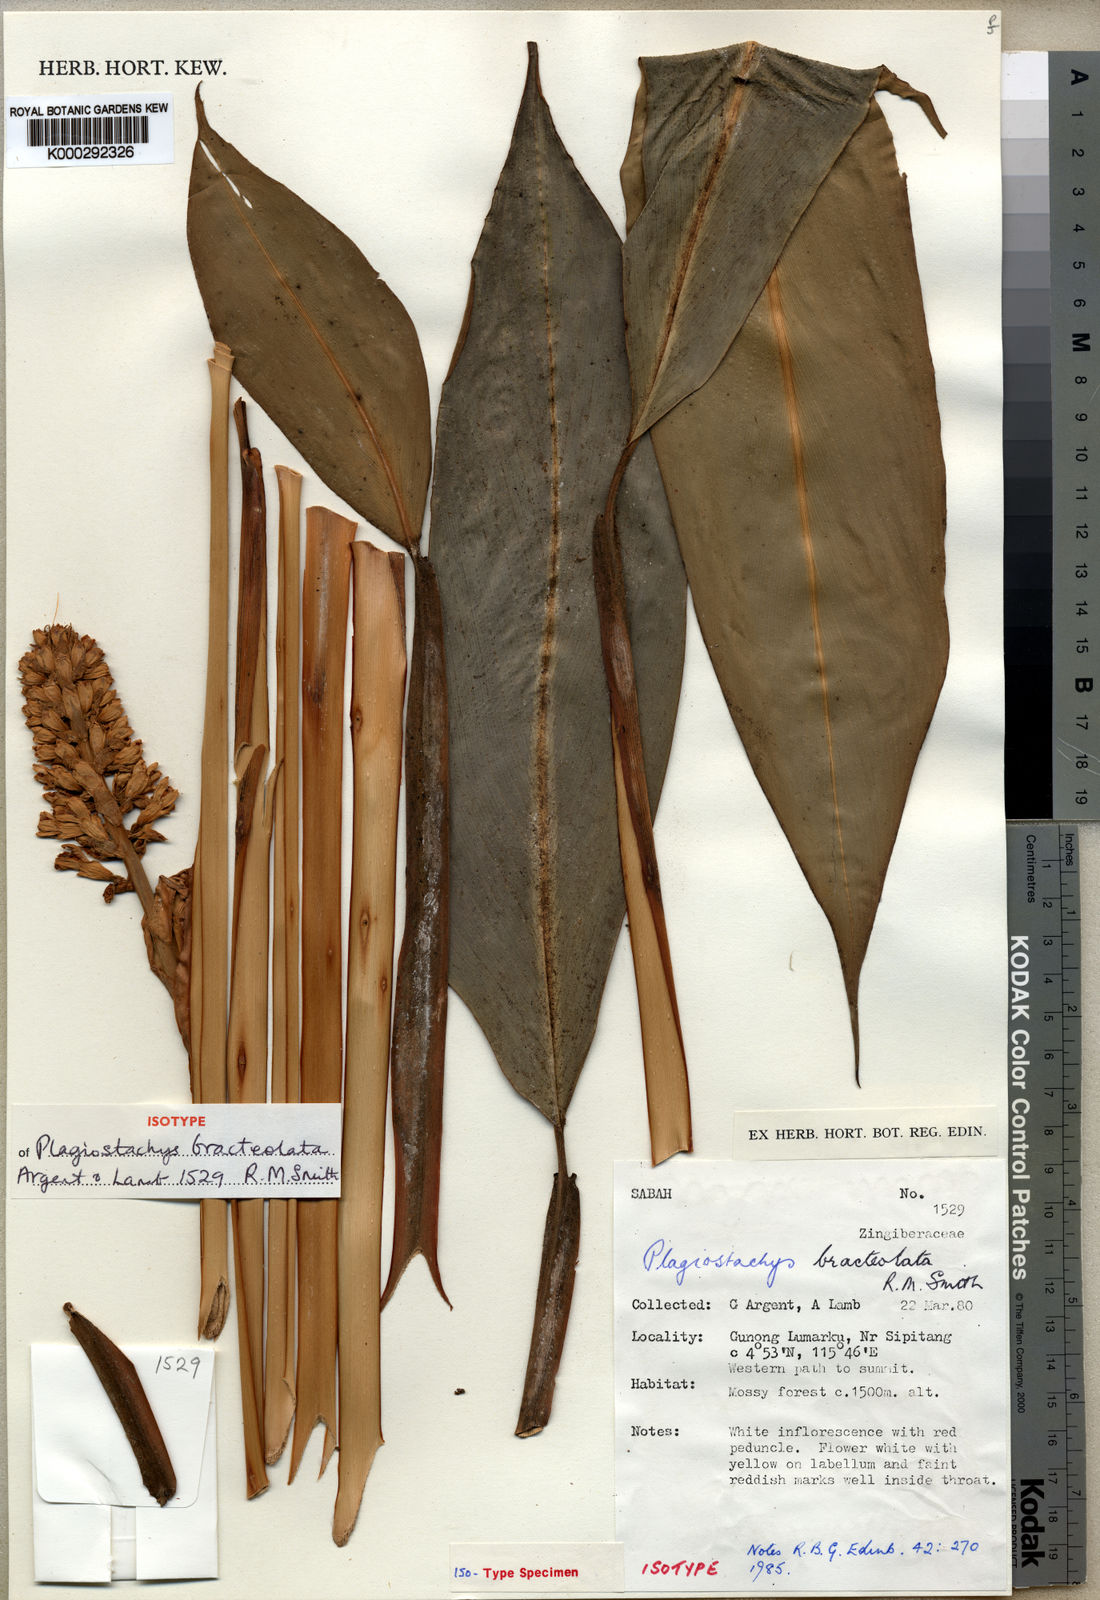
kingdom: Plantae
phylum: Tracheophyta
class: Liliopsida
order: Zingiberales
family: Zingiberaceae
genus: Plagiostachys
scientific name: Plagiostachys bracteolata
